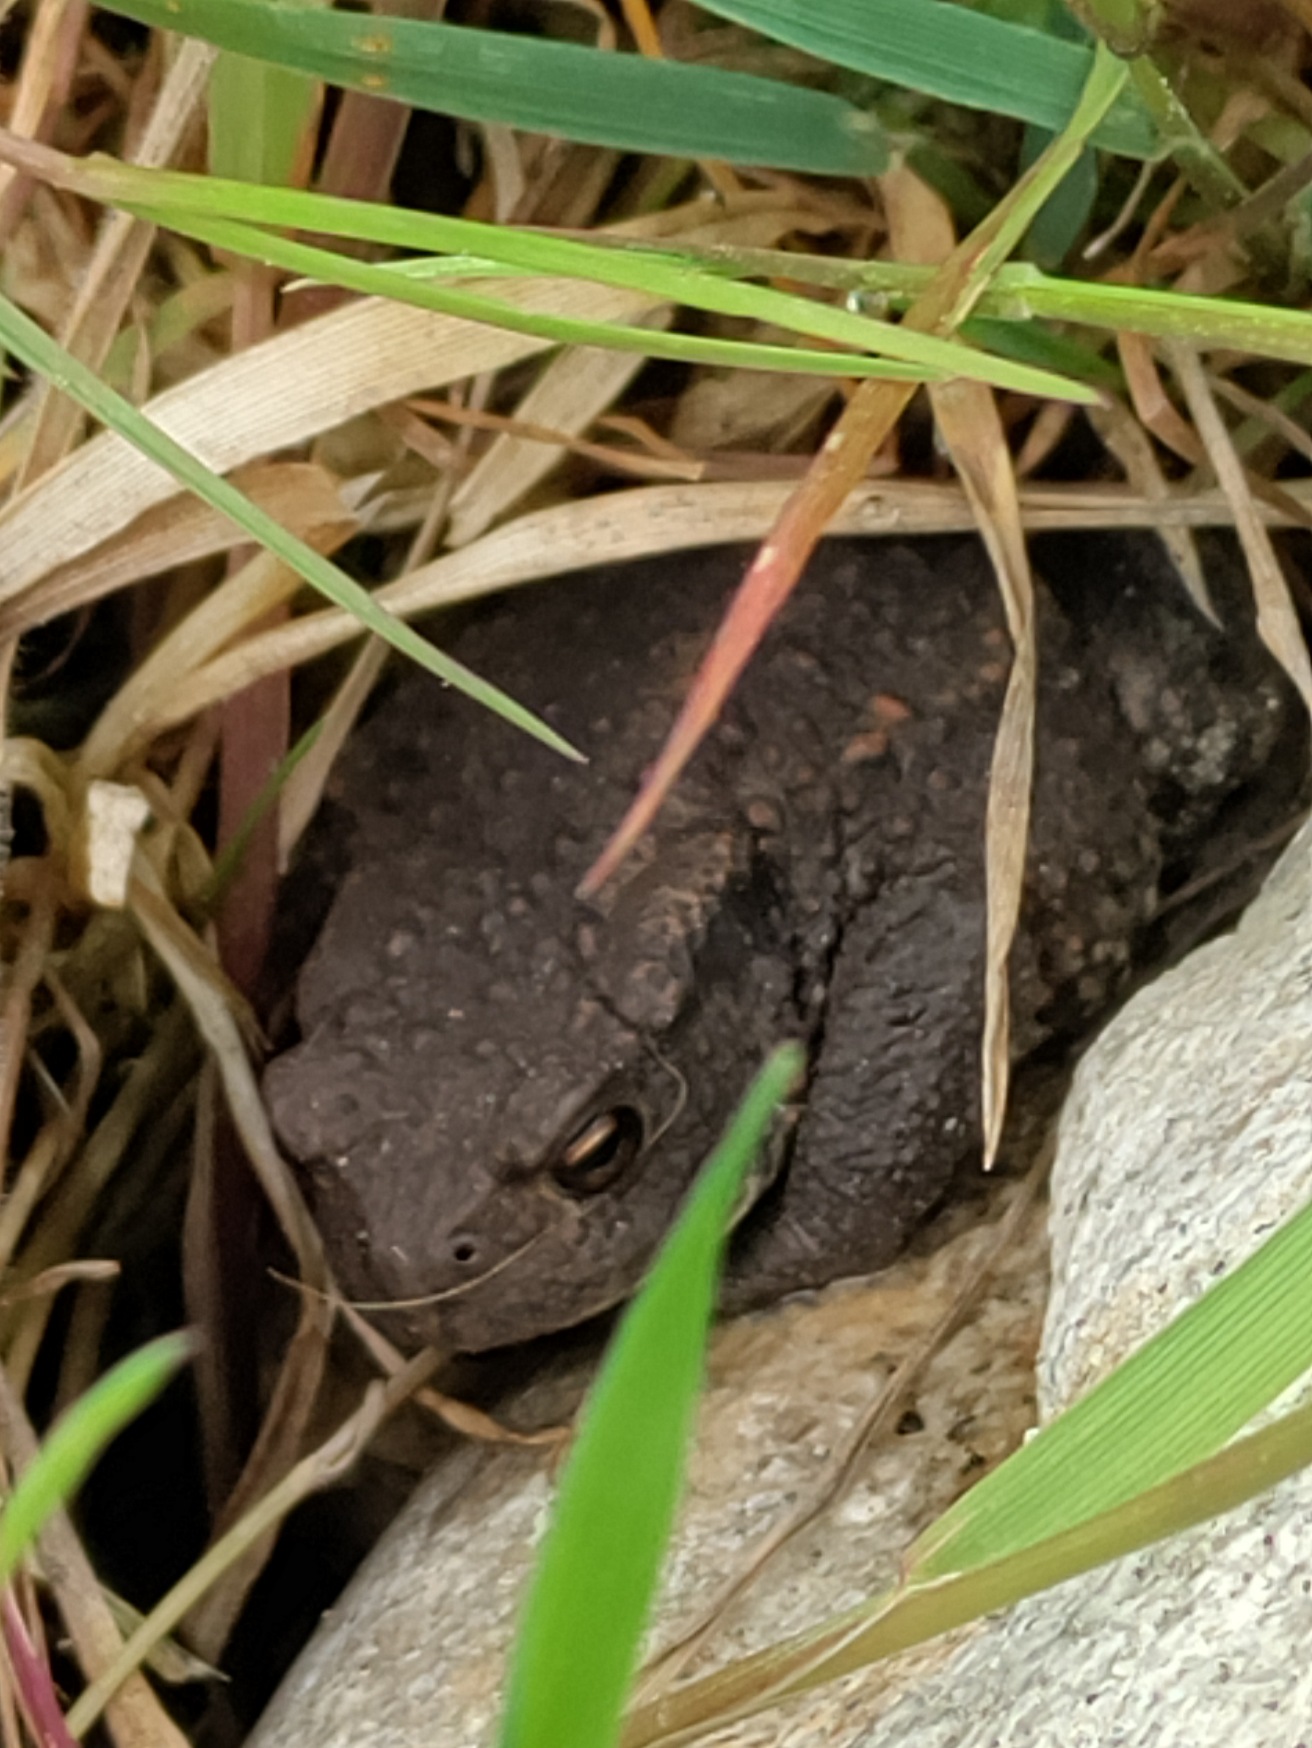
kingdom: Animalia
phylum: Chordata
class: Amphibia
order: Anura
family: Bufonidae
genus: Bufo
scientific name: Bufo bufo
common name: Skrubtudse
